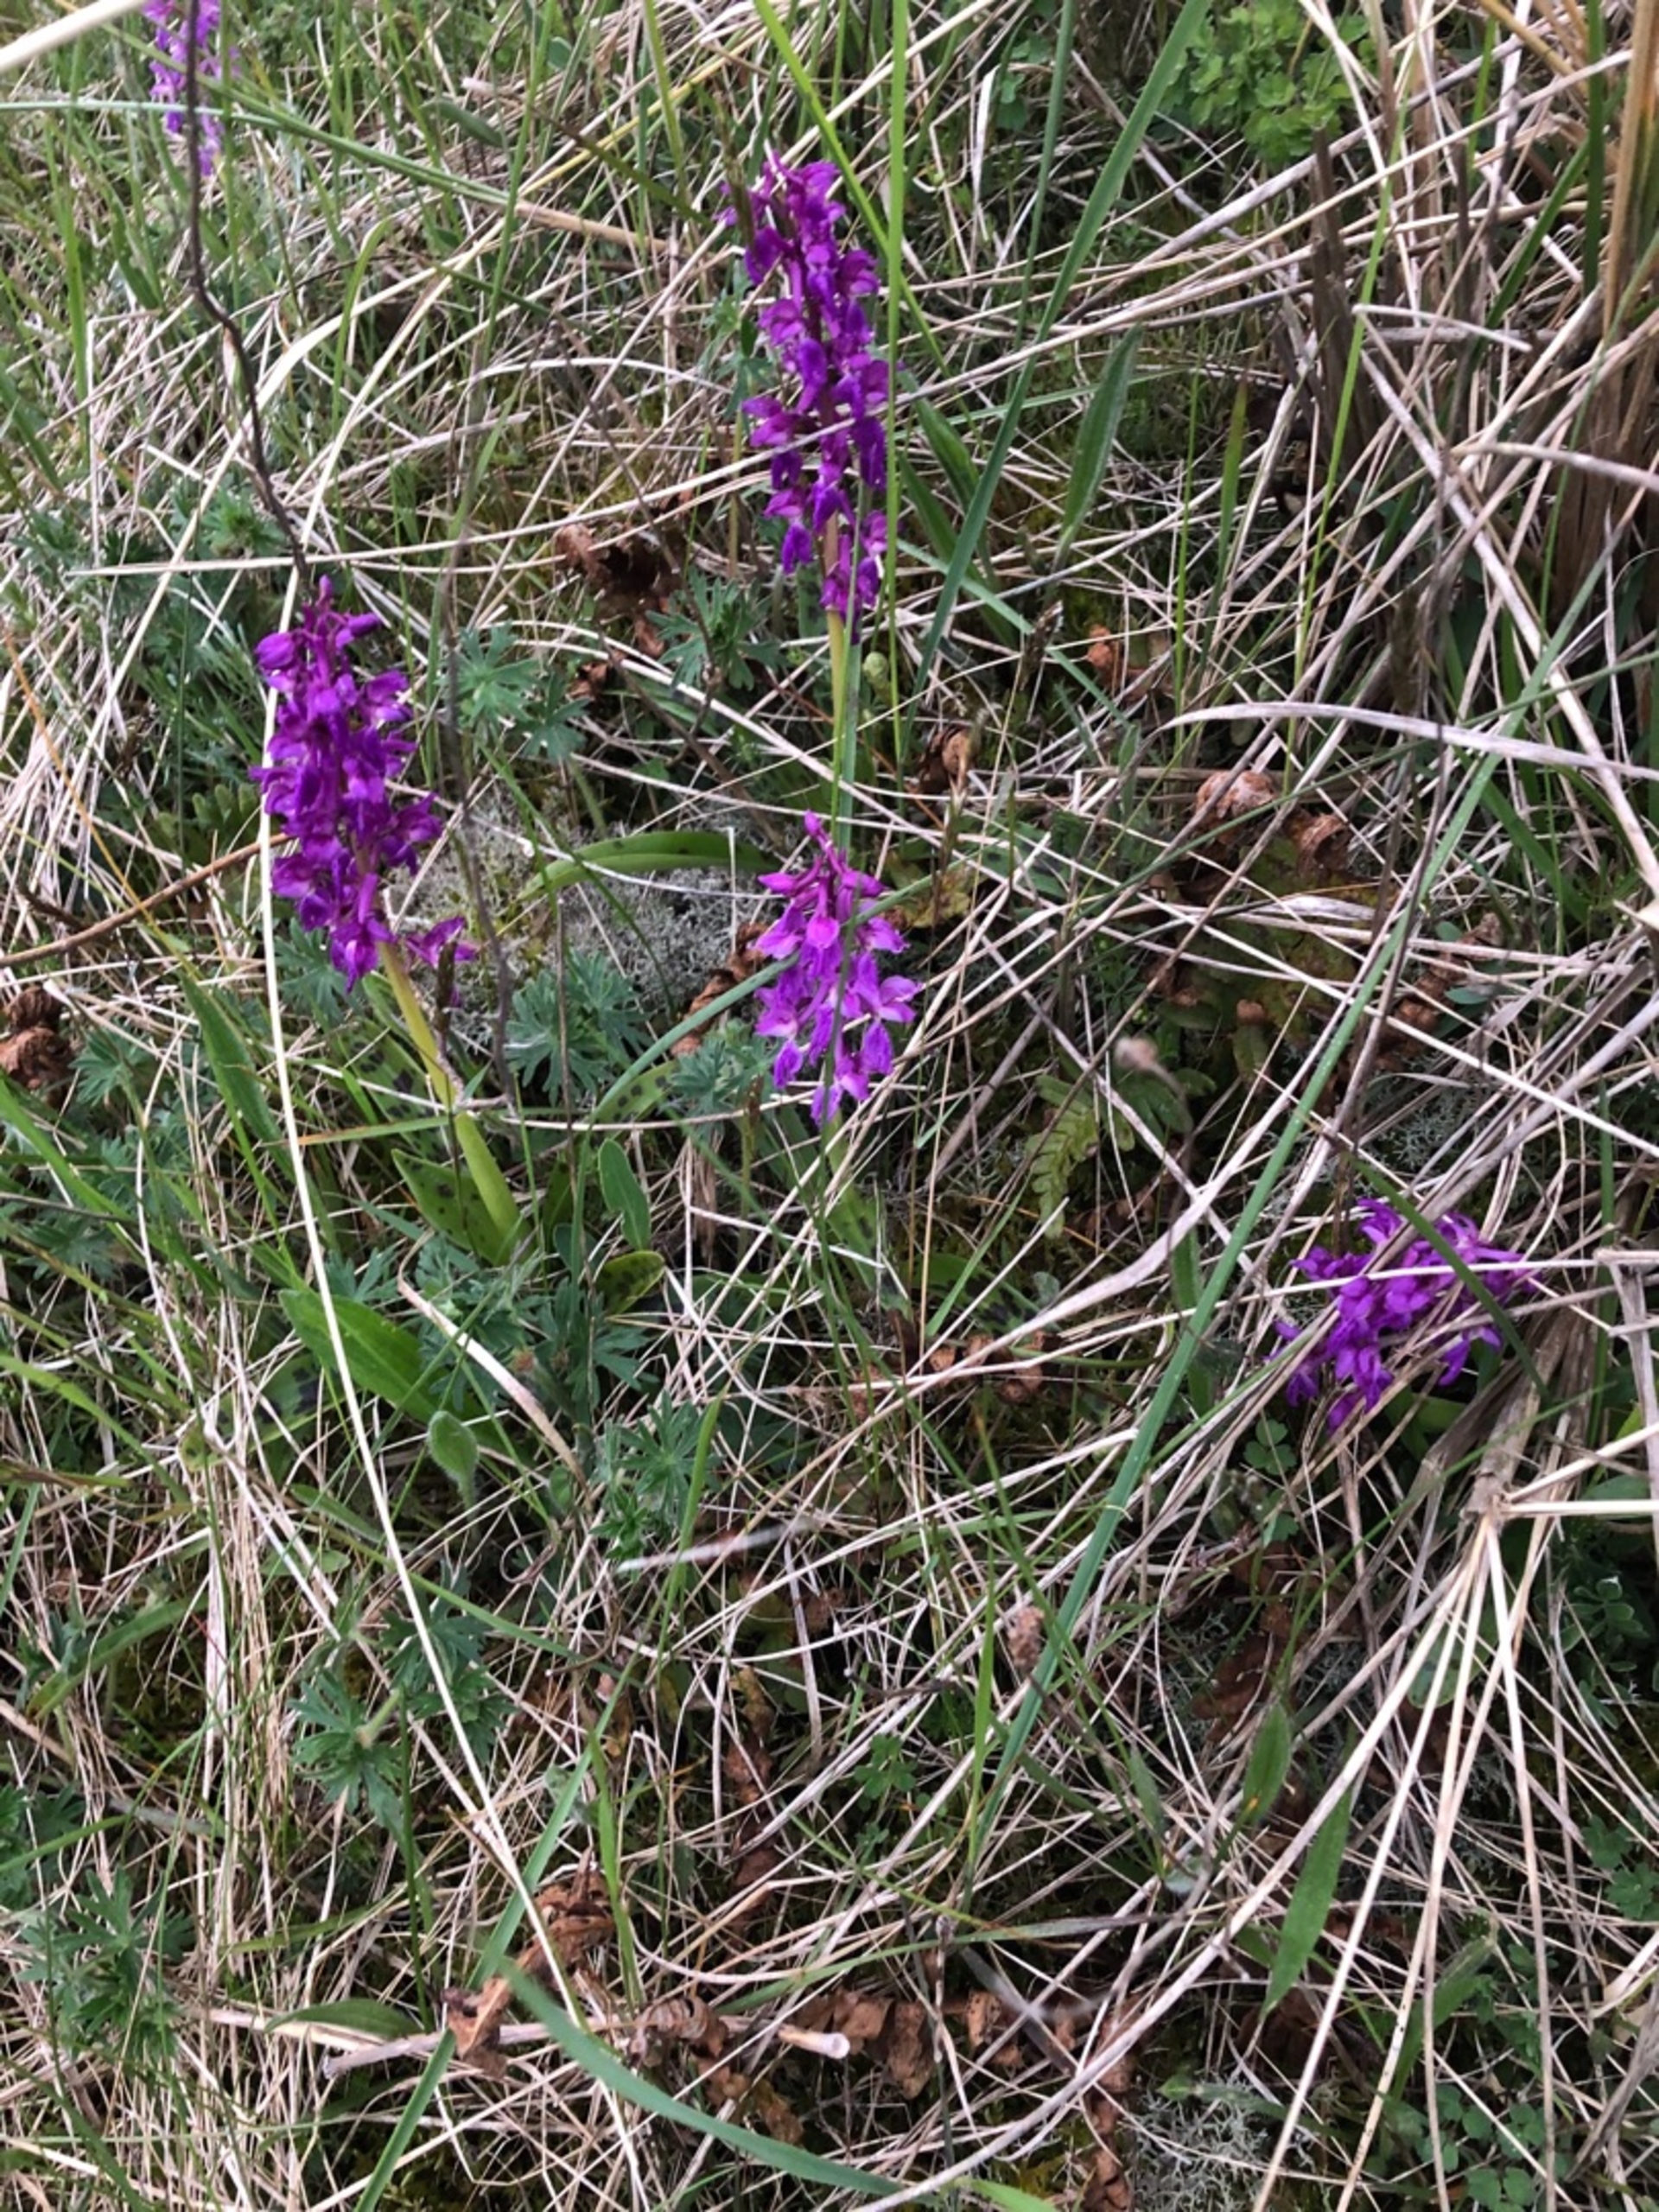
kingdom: Plantae
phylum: Tracheophyta
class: Liliopsida
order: Asparagales
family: Orchidaceae
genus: Orchis
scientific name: Orchis mascula
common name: Tyndakset gøgeurt
